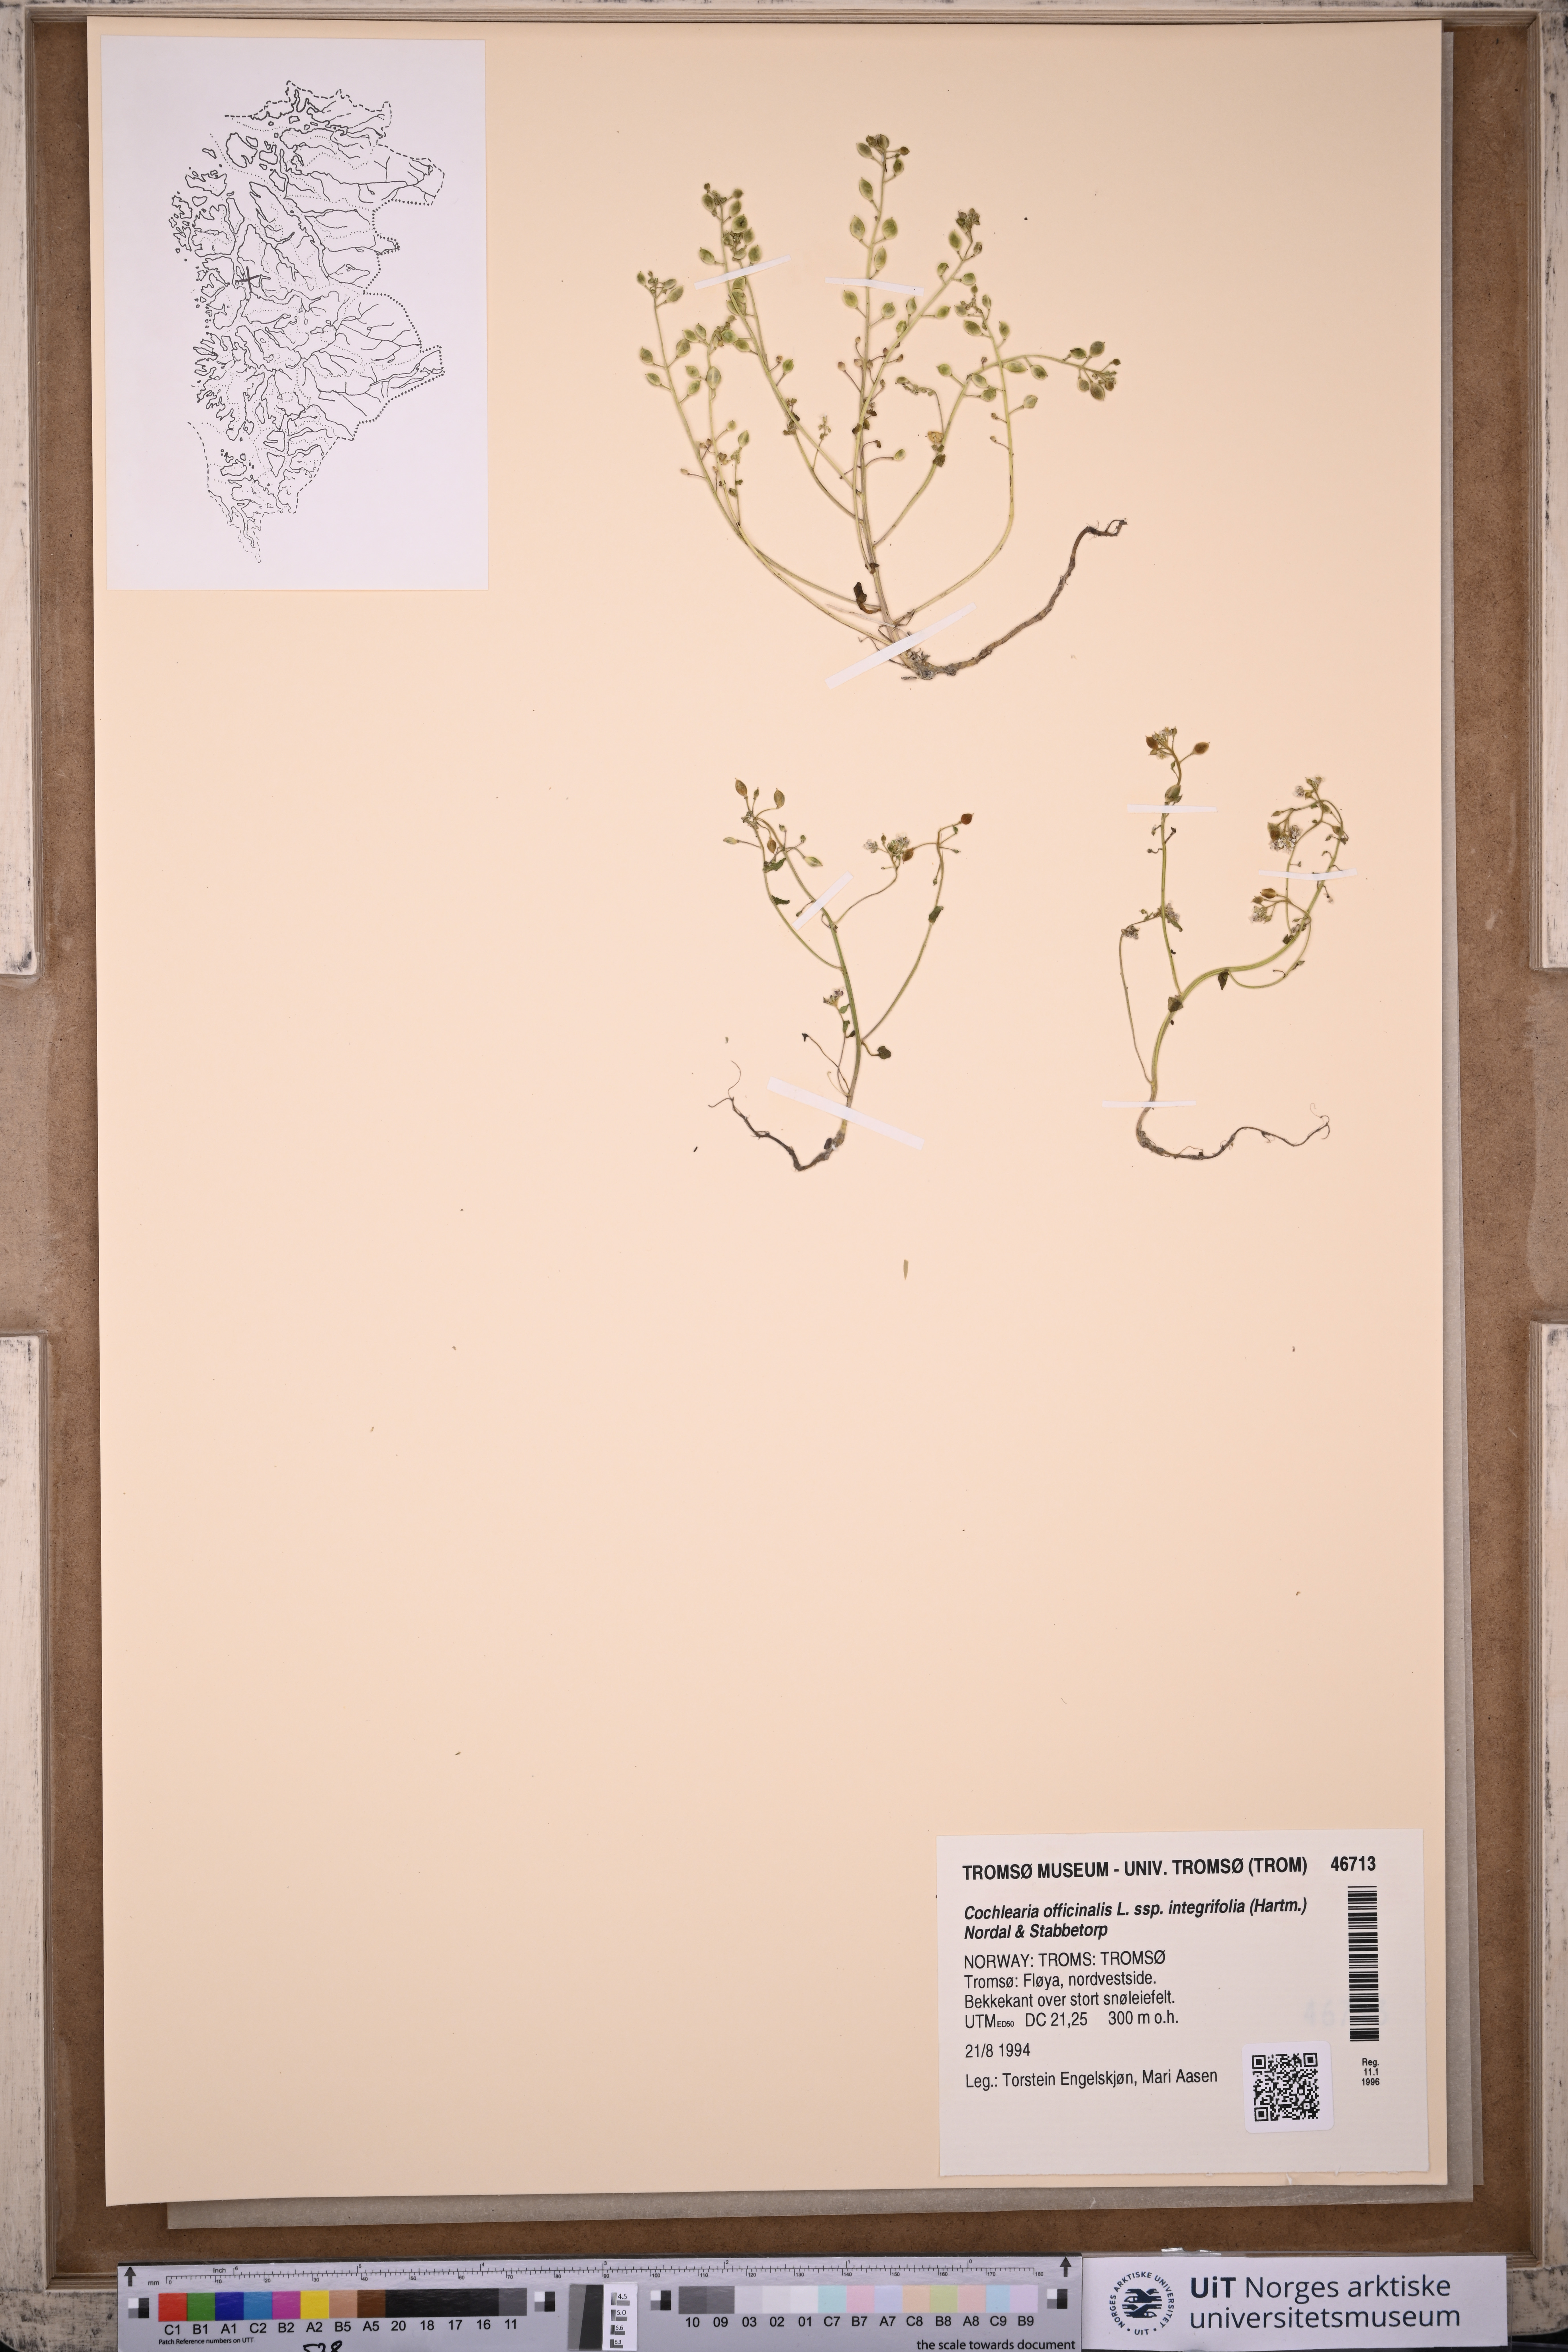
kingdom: Plantae
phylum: Tracheophyta
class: Magnoliopsida
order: Brassicales
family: Brassicaceae
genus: Cochlearia
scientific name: Cochlearia officinalis
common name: Scurvy-grass
